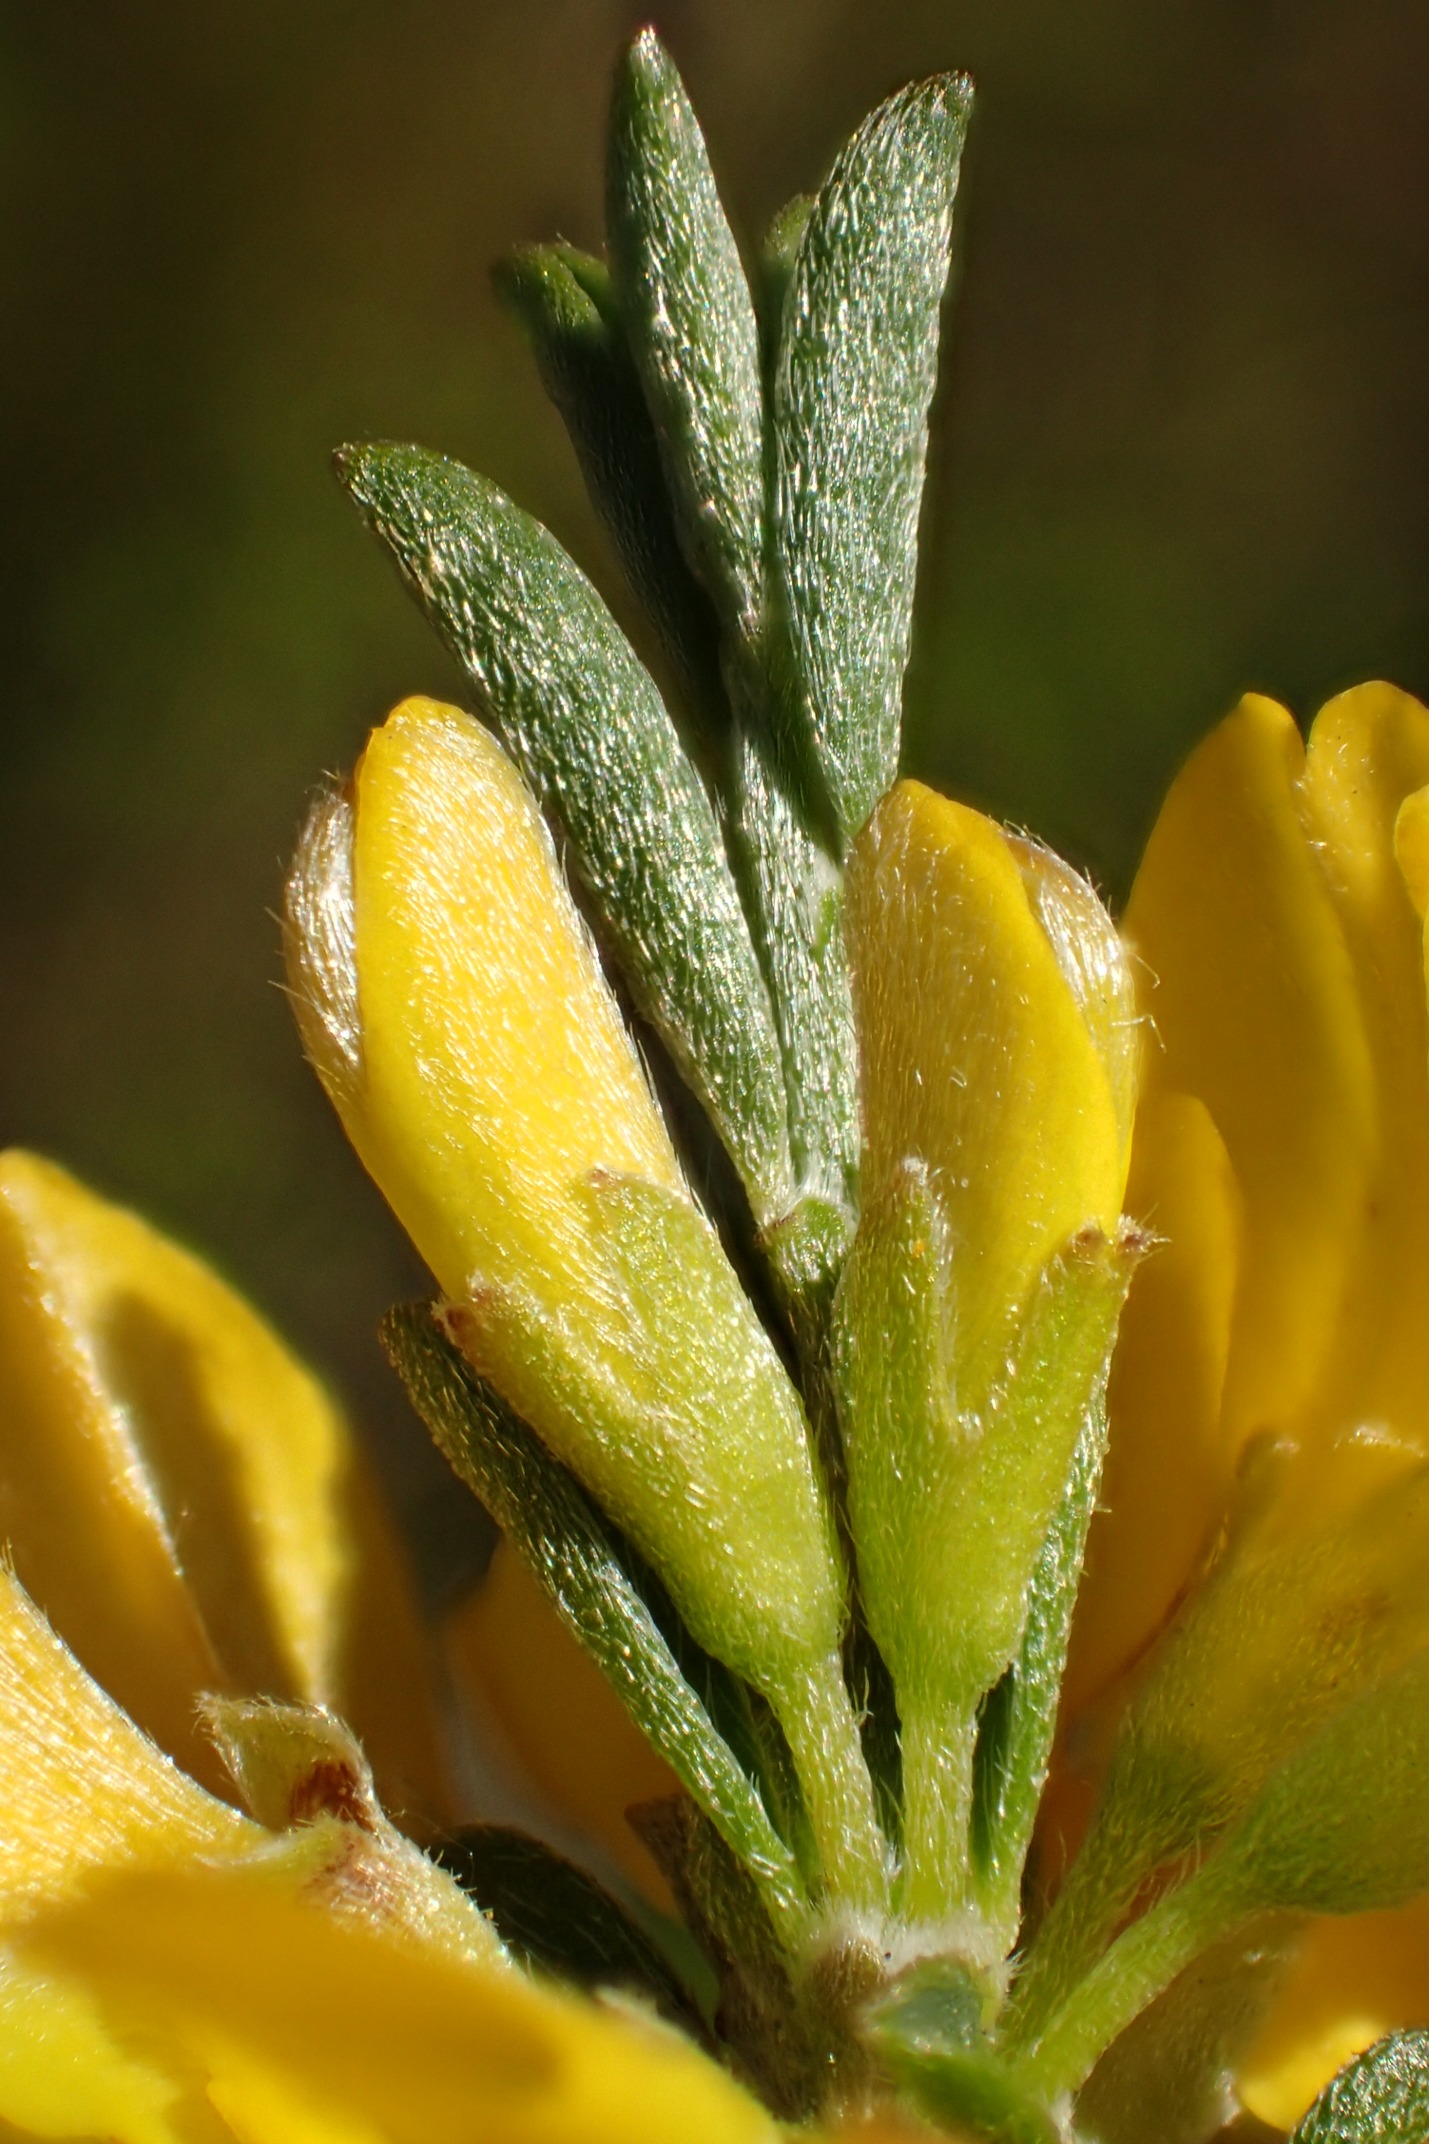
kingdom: Plantae
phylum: Tracheophyta
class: Magnoliopsida
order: Fabales
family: Fabaceae
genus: Genista
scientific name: Genista pilosa
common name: Håret visse
